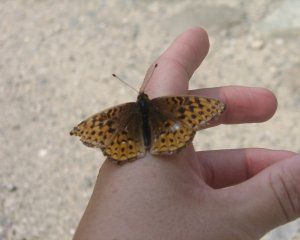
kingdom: Animalia
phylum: Arthropoda
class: Insecta
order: Lepidoptera
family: Nymphalidae
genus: Speyeria
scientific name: Speyeria atlantis
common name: Atlantis Fritillary
